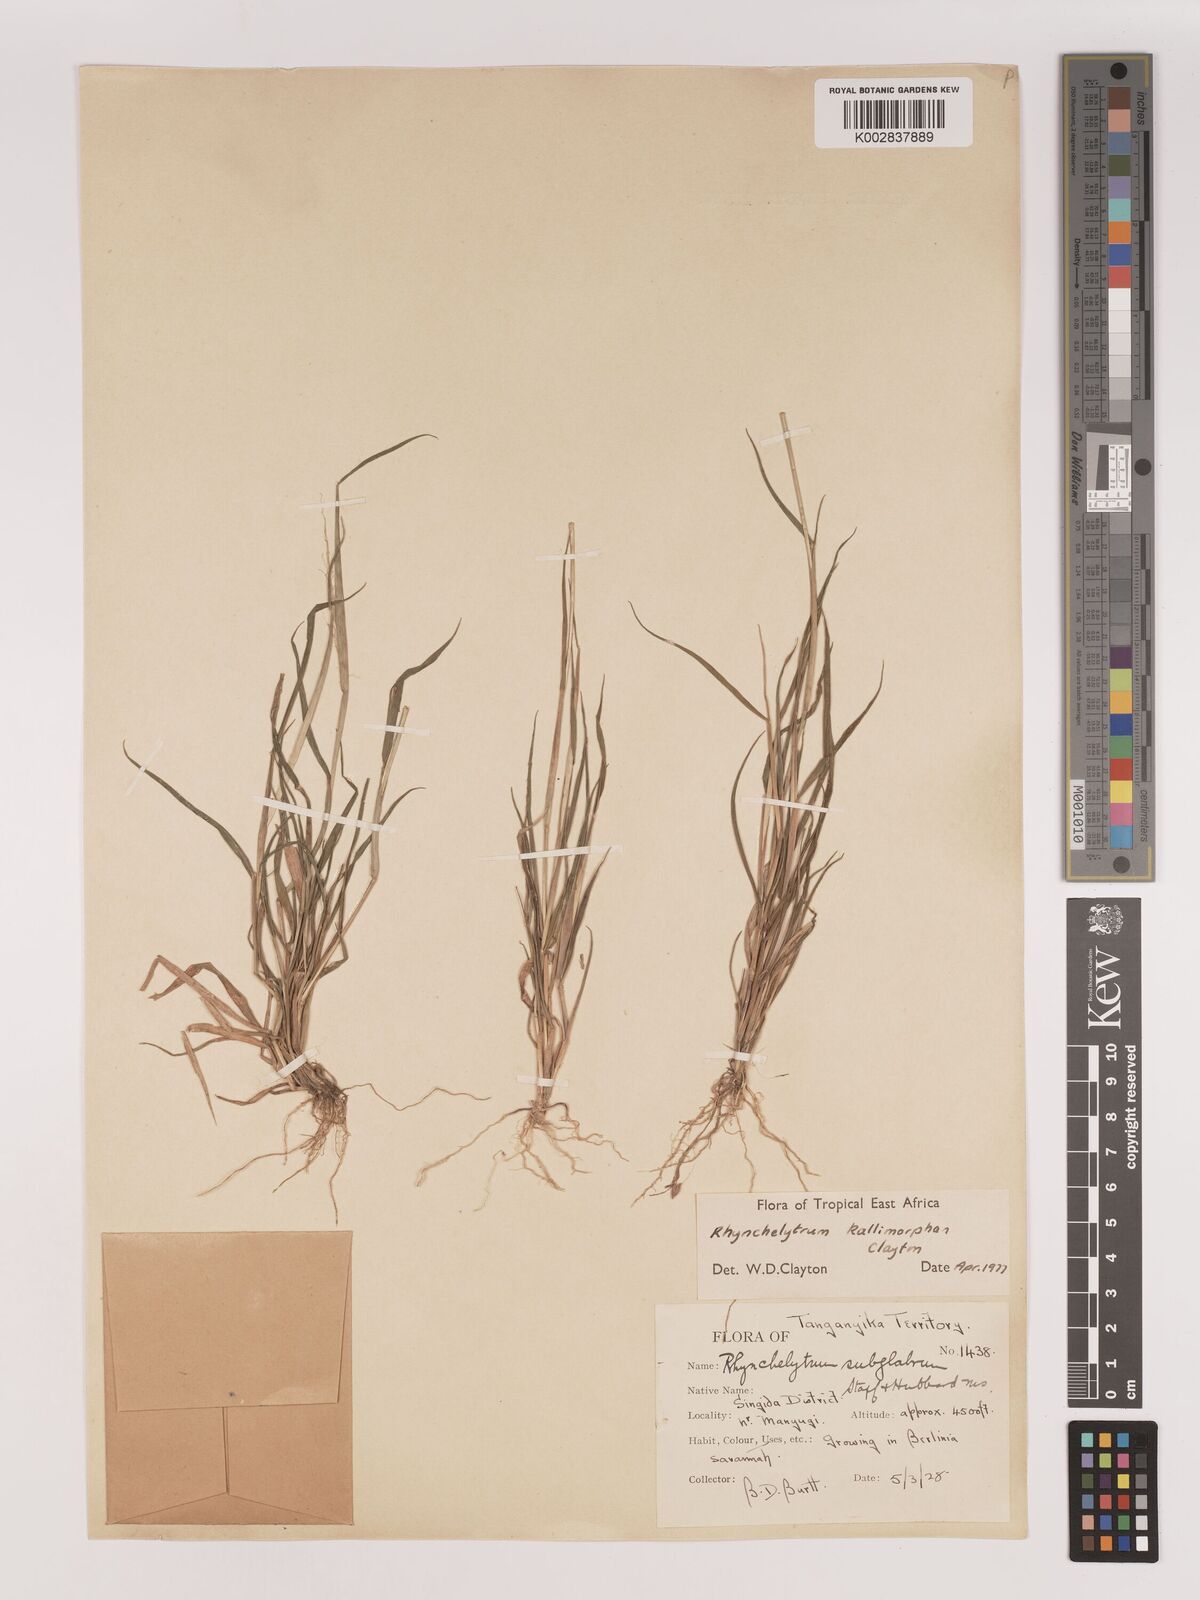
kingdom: Plantae
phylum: Tracheophyta
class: Liliopsida
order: Poales
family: Poaceae
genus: Melinis
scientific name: Melinis kallimorpha
